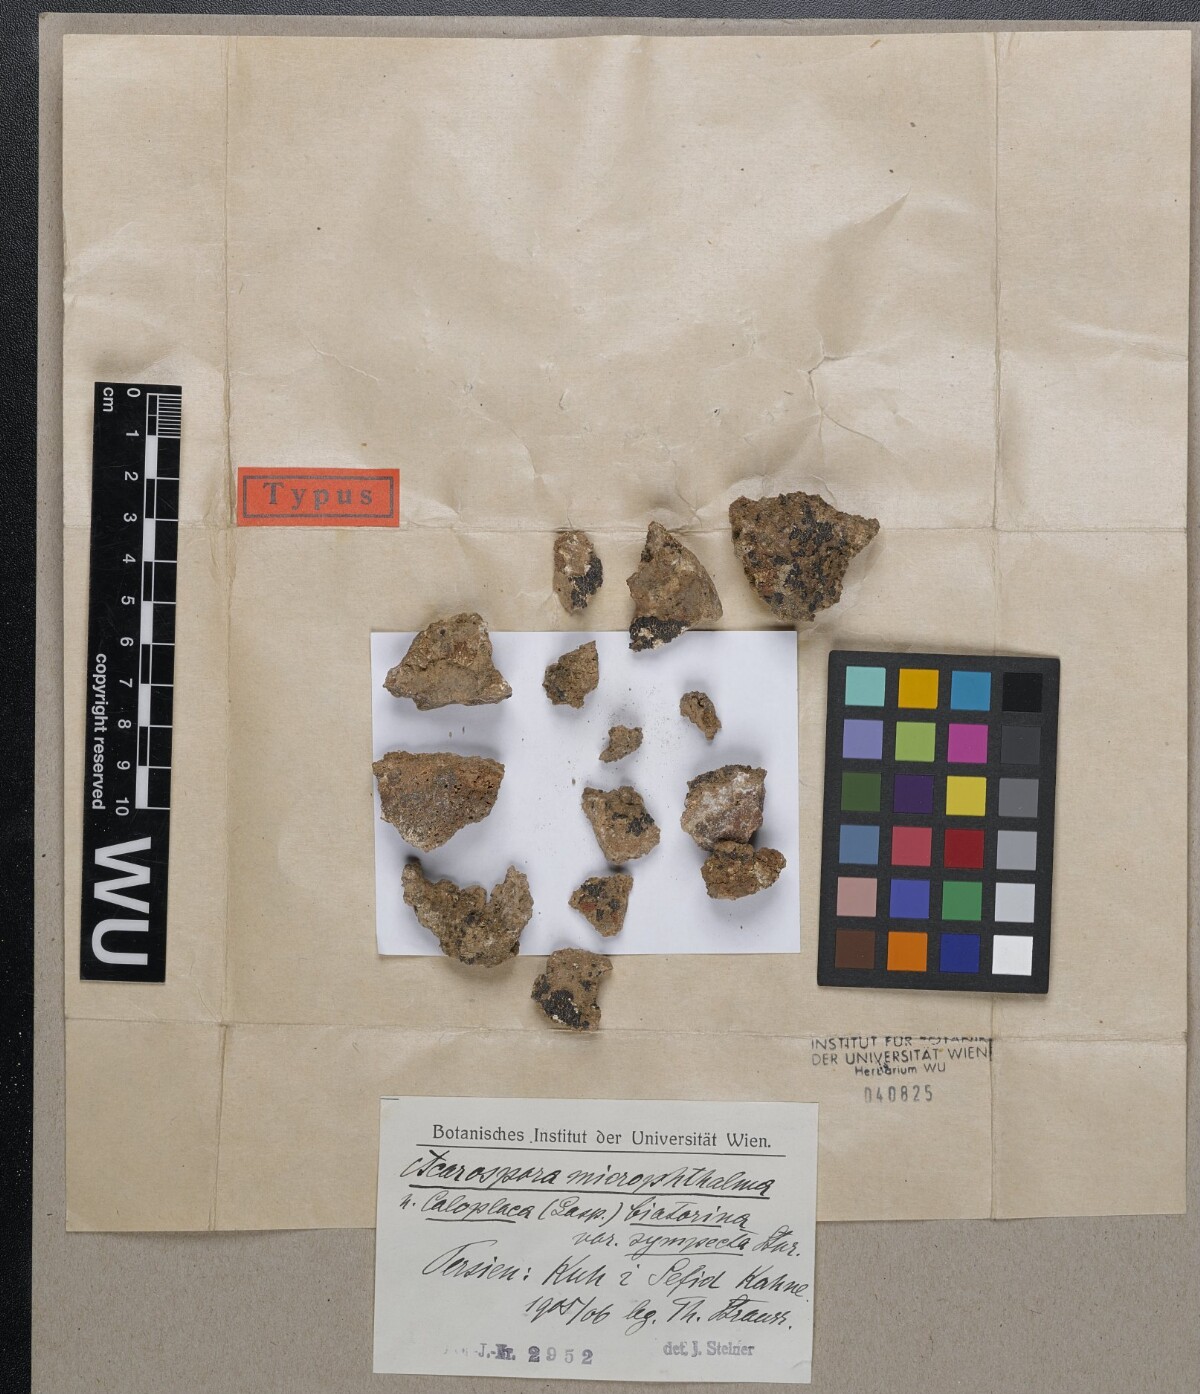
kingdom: Fungi
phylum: Ascomycota
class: Lecanoromycetes
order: Teloschistales
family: Teloschistaceae
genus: Calogaya
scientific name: Calogaya biatorina
